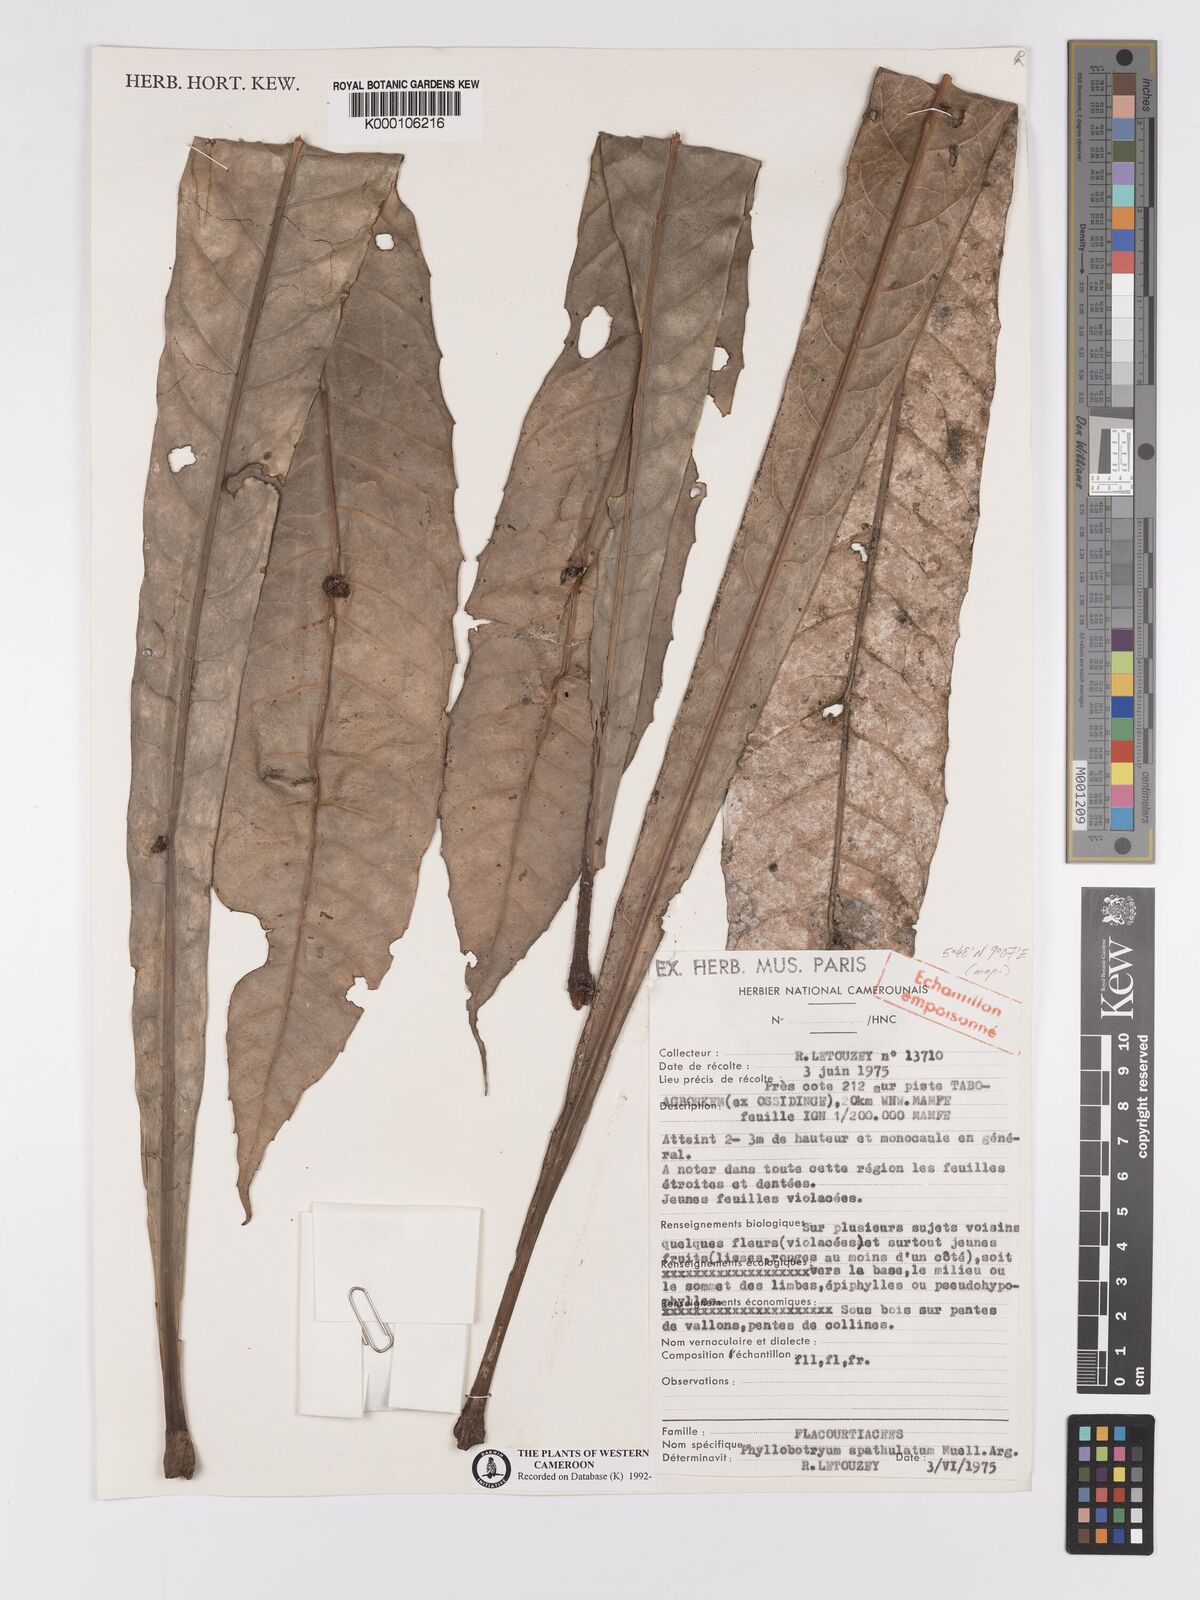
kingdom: Plantae
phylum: Tracheophyta
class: Magnoliopsida
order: Malpighiales
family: Salicaceae
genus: Phyllobotryon
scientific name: Phyllobotryon
